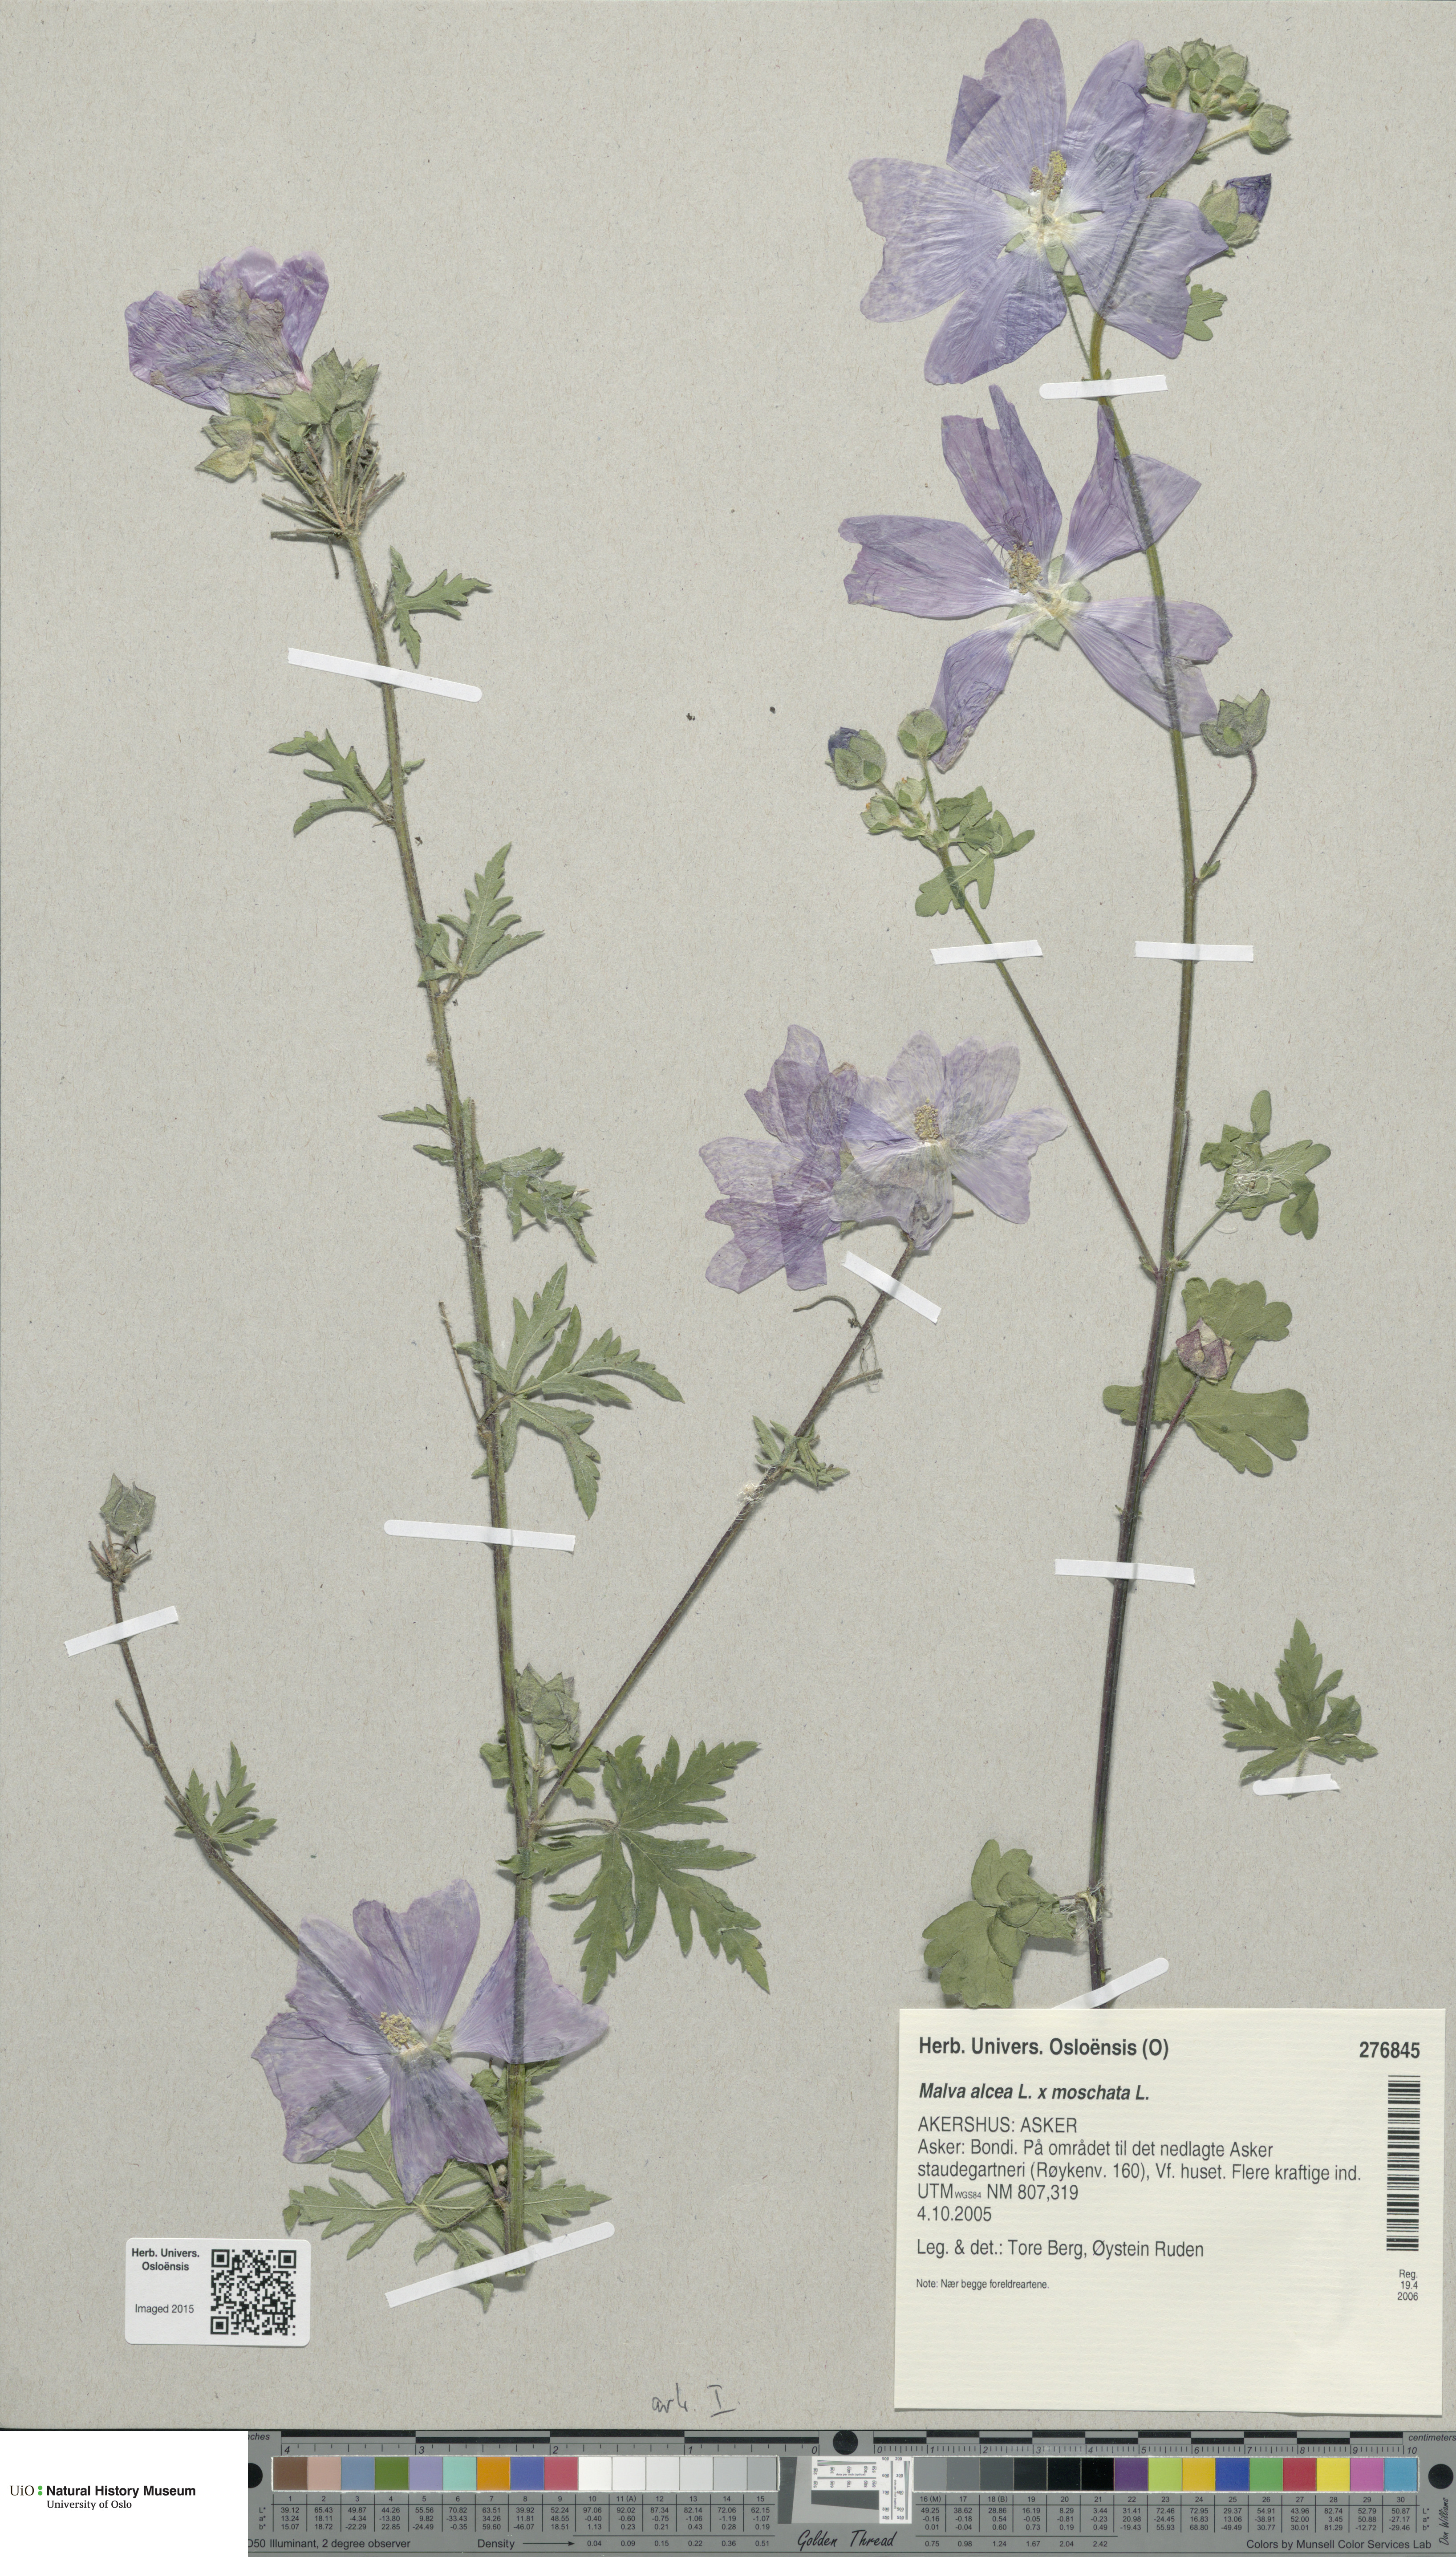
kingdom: Plantae
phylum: Tracheophyta
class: Magnoliopsida
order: Malvales
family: Malvaceae
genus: Malva
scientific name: Malva
